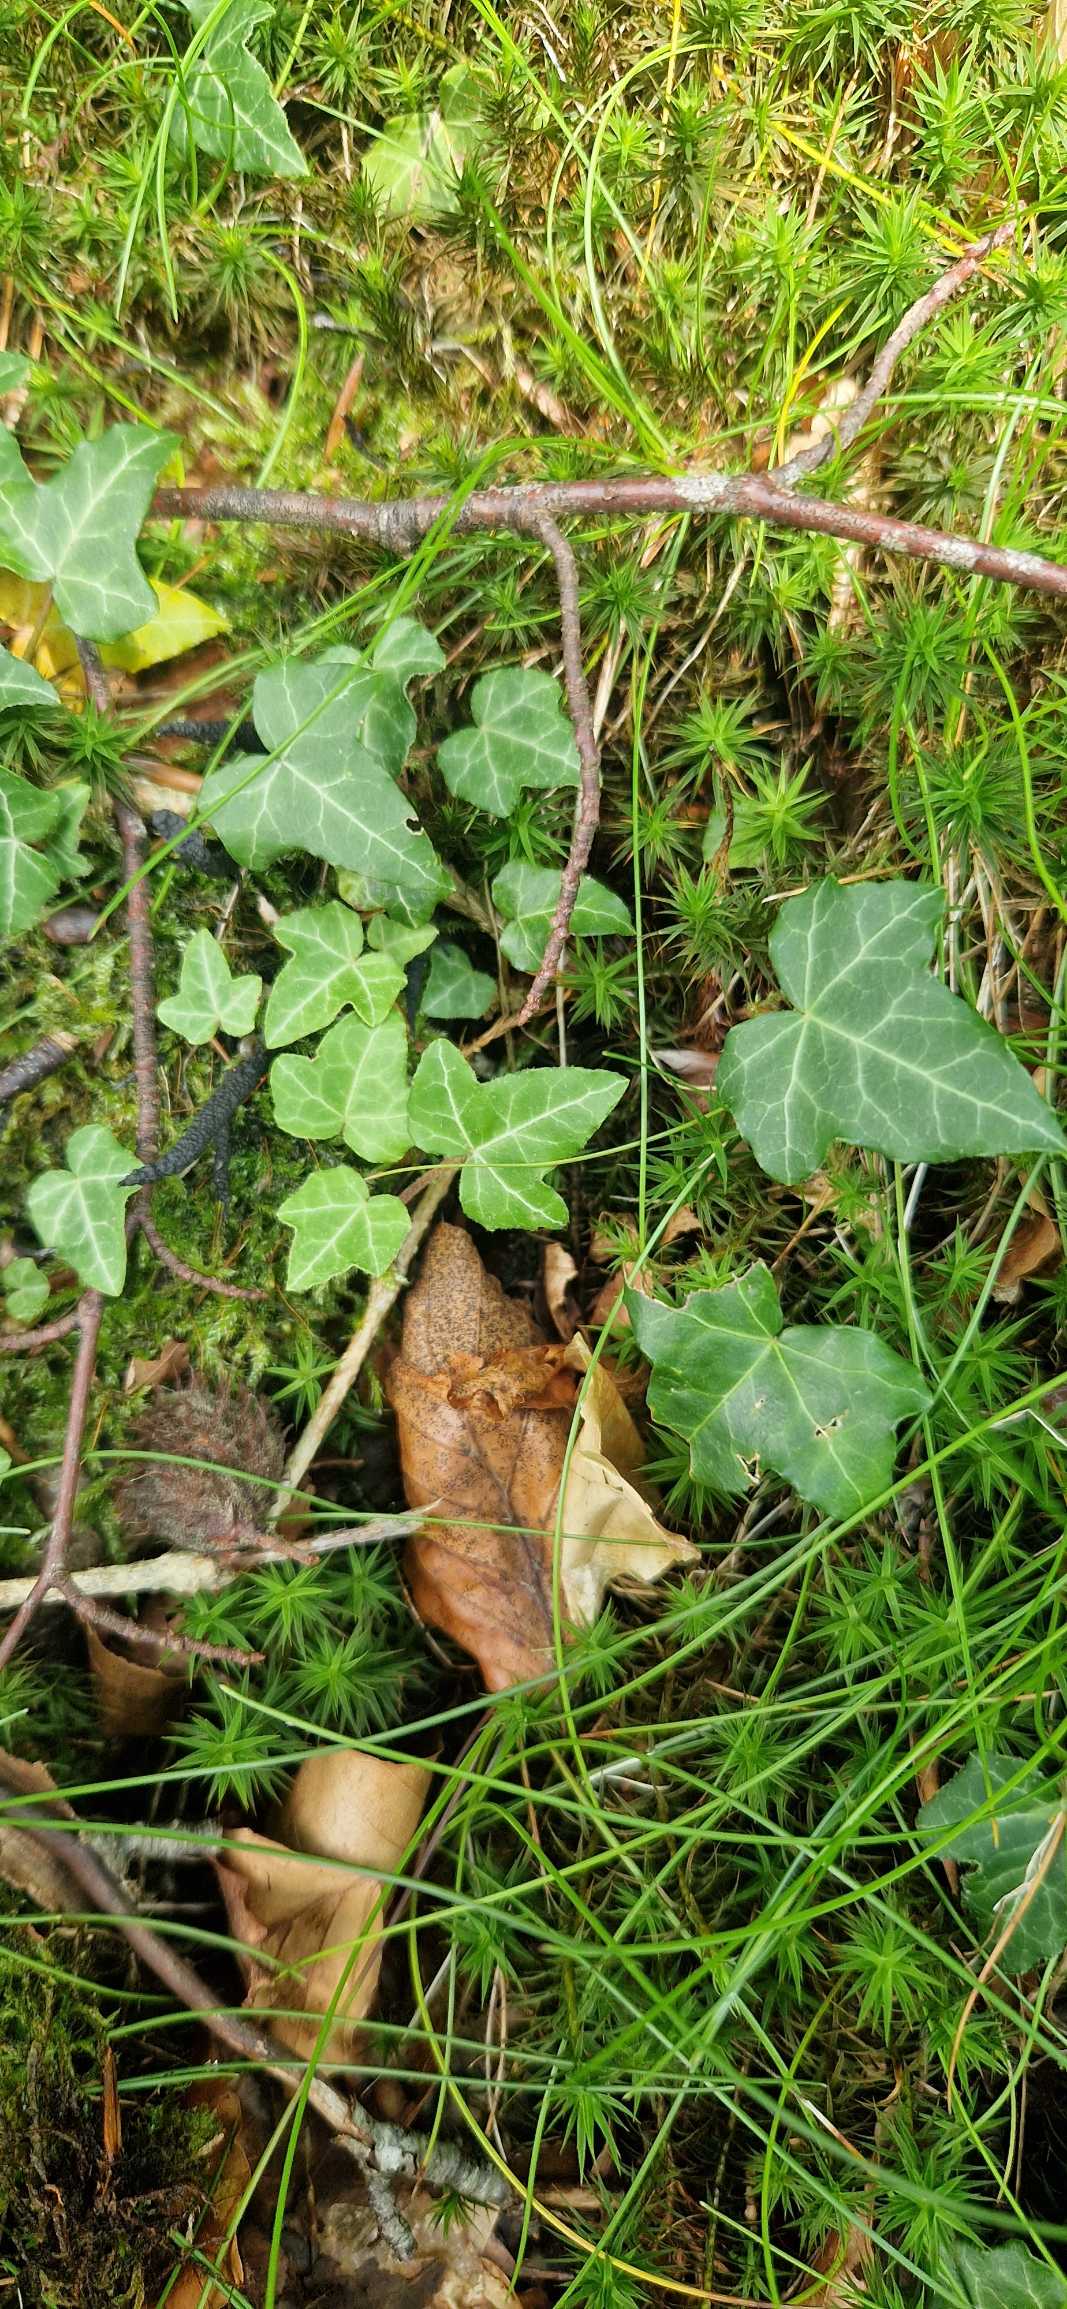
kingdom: Plantae
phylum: Tracheophyta
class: Magnoliopsida
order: Apiales
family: Araliaceae
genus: Hedera
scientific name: Hedera helix
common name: Vedbend
